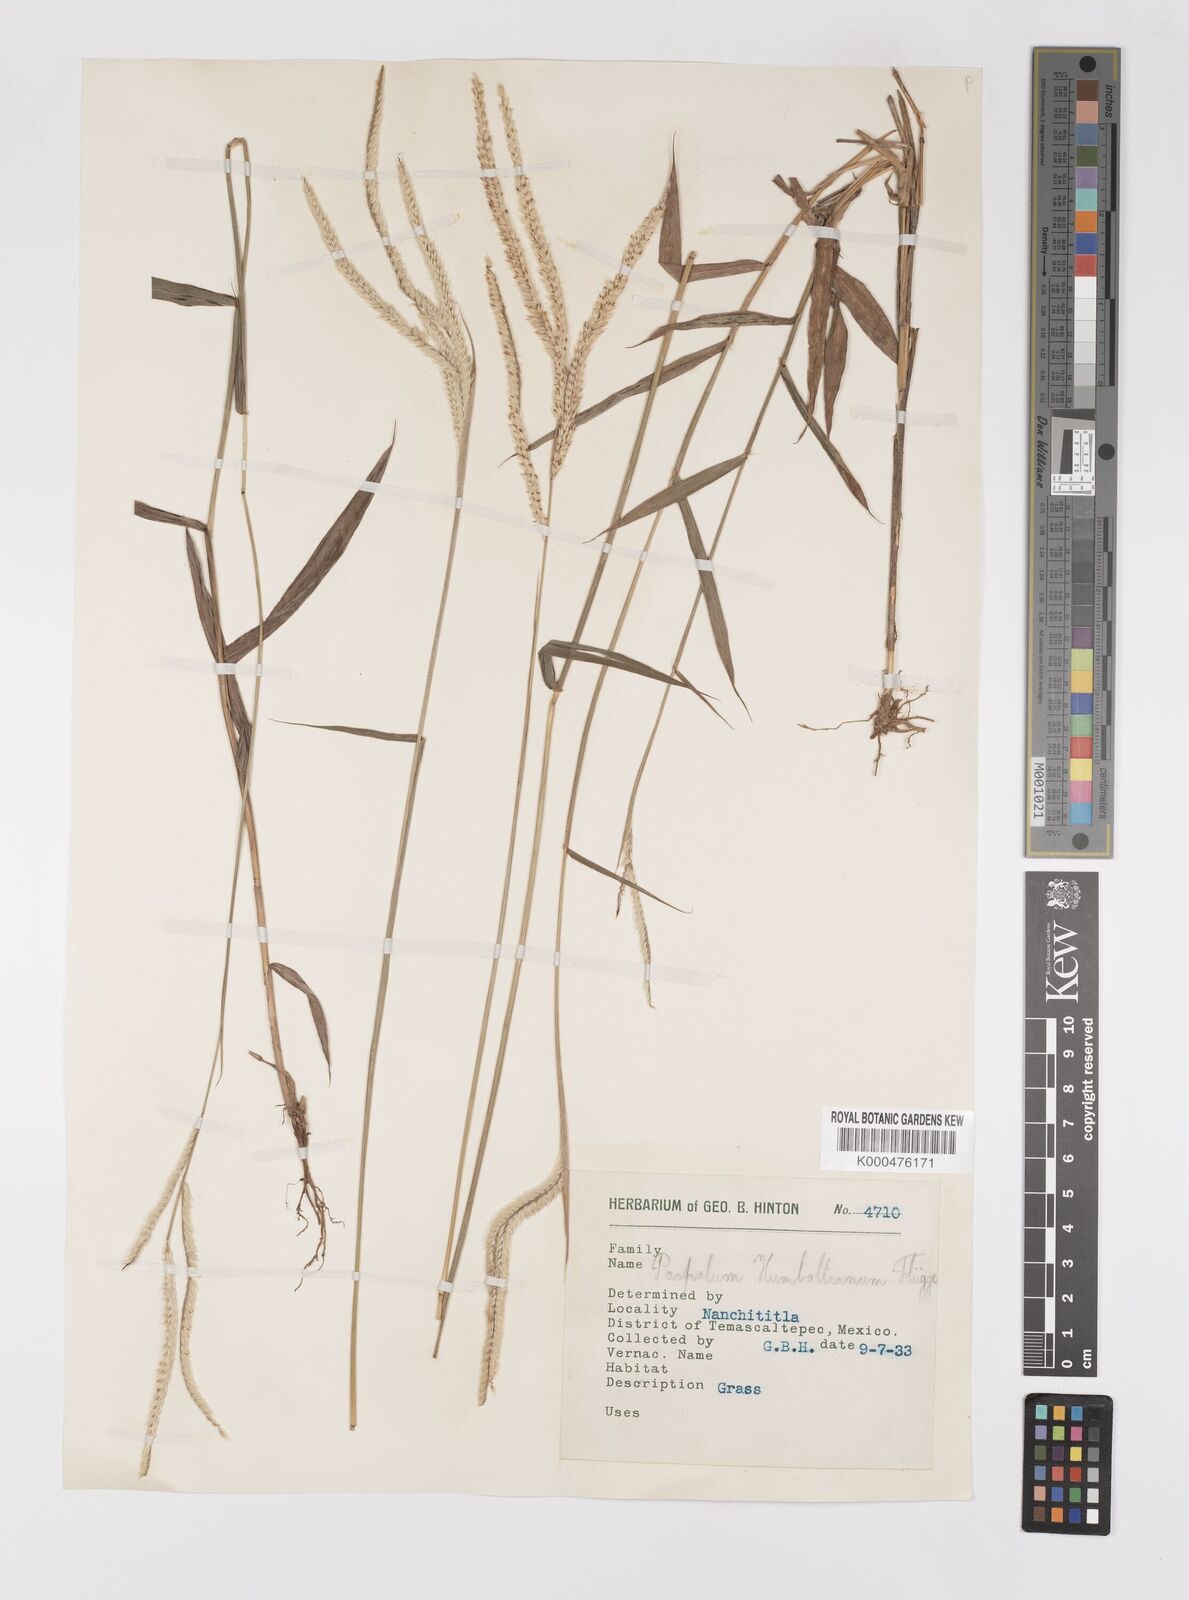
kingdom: Plantae
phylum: Tracheophyta
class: Liliopsida
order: Poales
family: Poaceae
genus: Paspalum
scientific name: Paspalum
